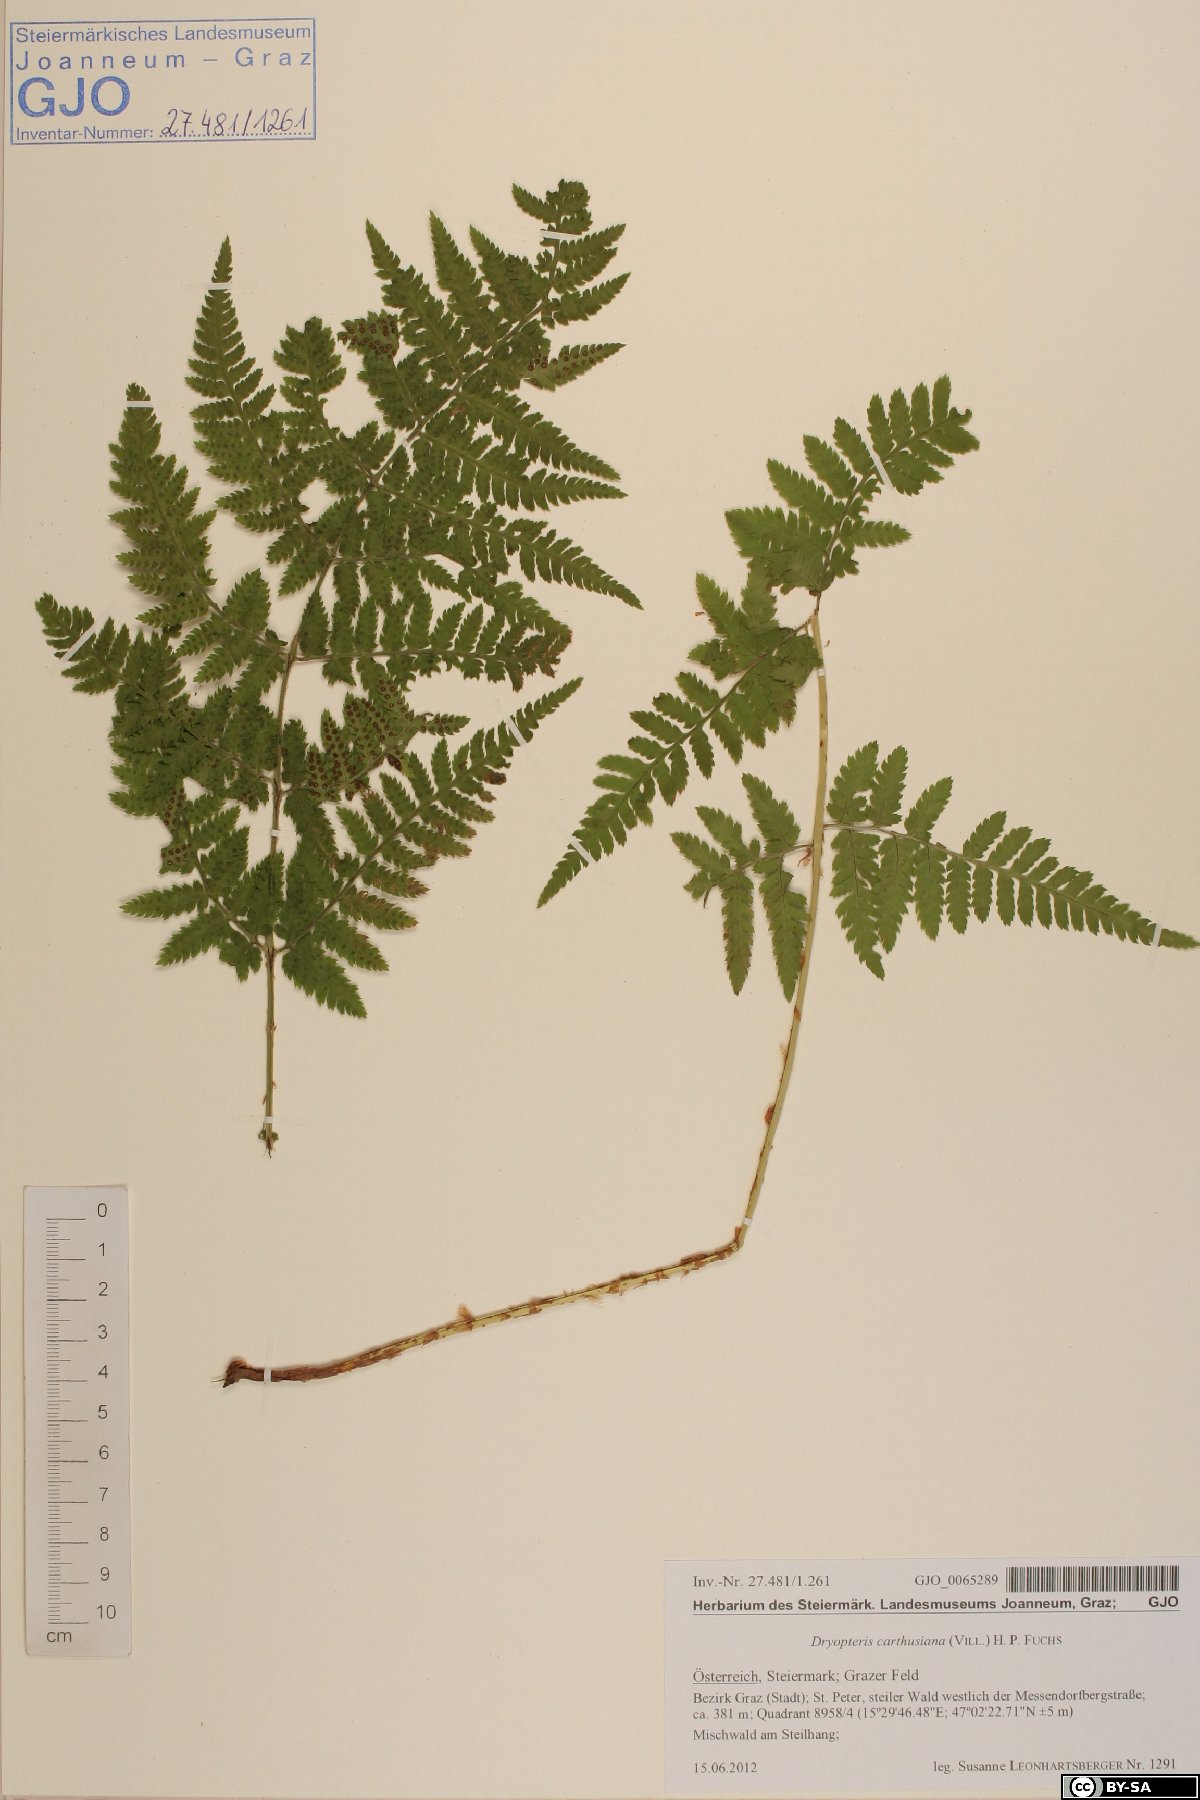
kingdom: Plantae
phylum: Tracheophyta
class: Polypodiopsida
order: Polypodiales
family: Dryopteridaceae
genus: Dryopteris
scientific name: Dryopteris carthusiana
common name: Narrow buckler-fern
